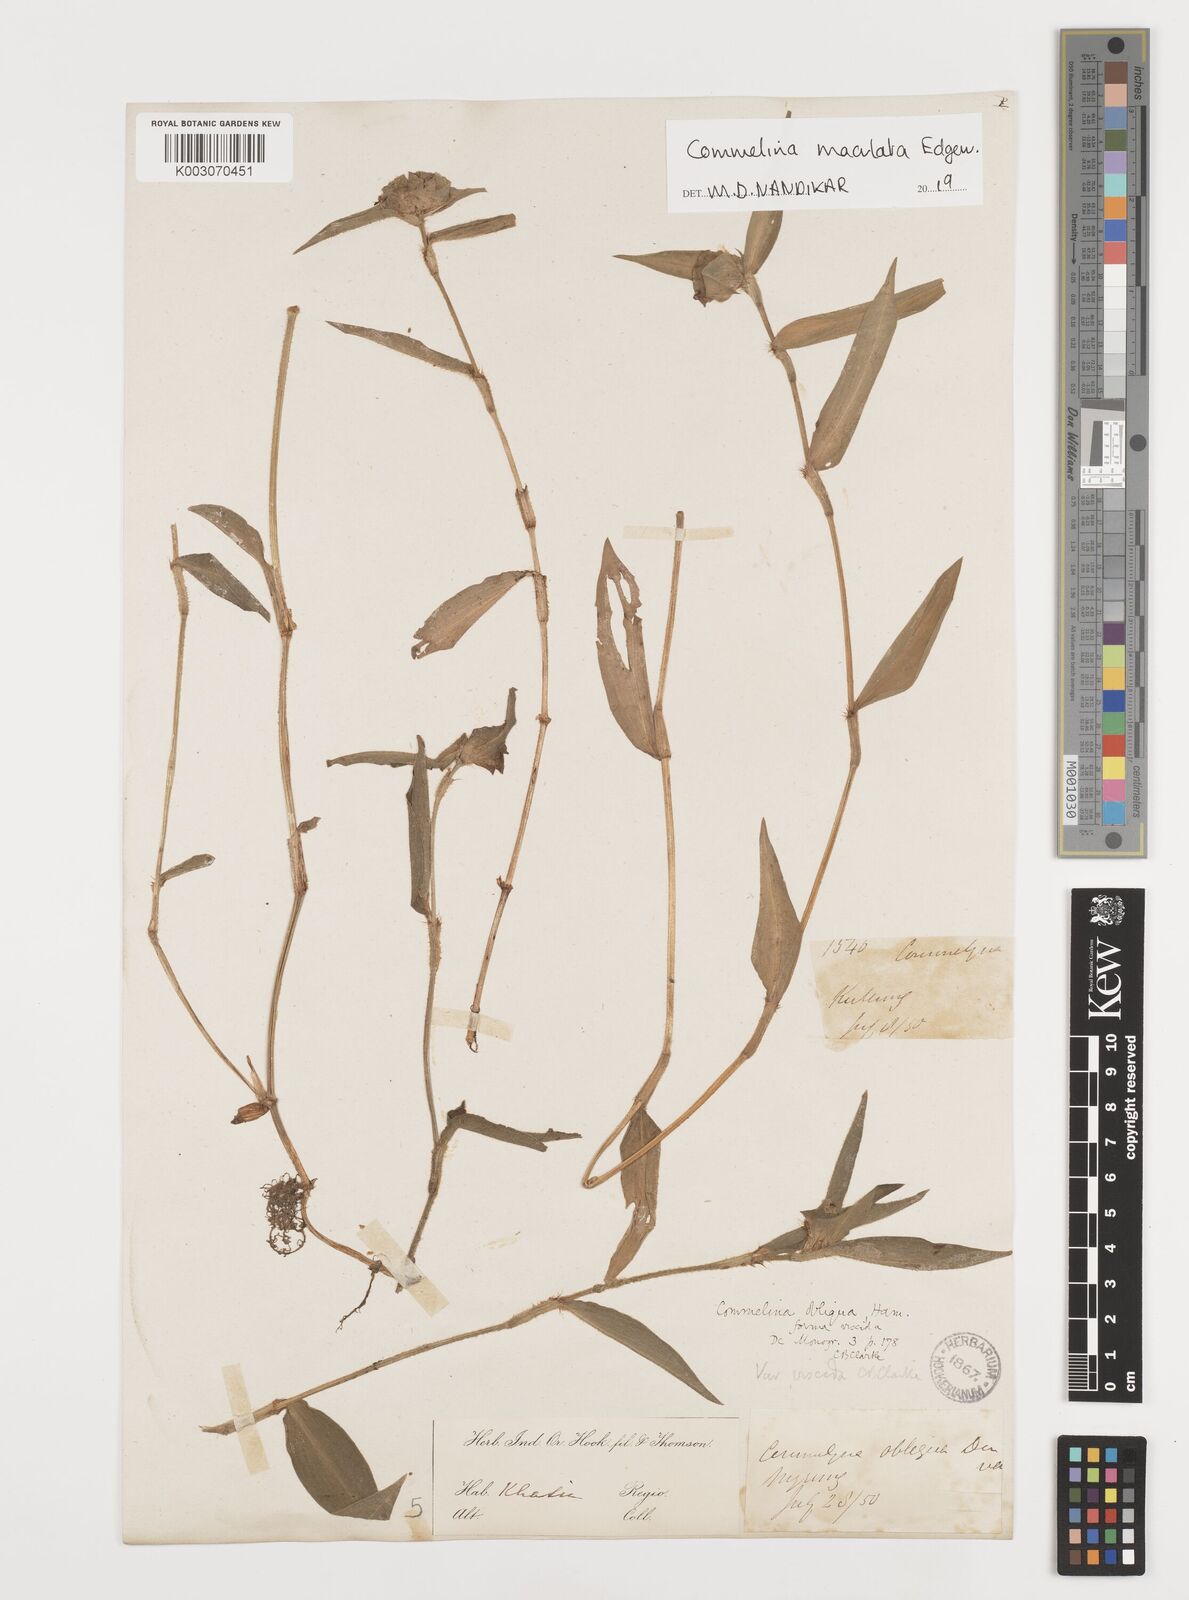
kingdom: Plantae
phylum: Tracheophyta
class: Liliopsida
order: Commelinales
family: Commelinaceae
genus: Commelina
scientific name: Commelina maculata
